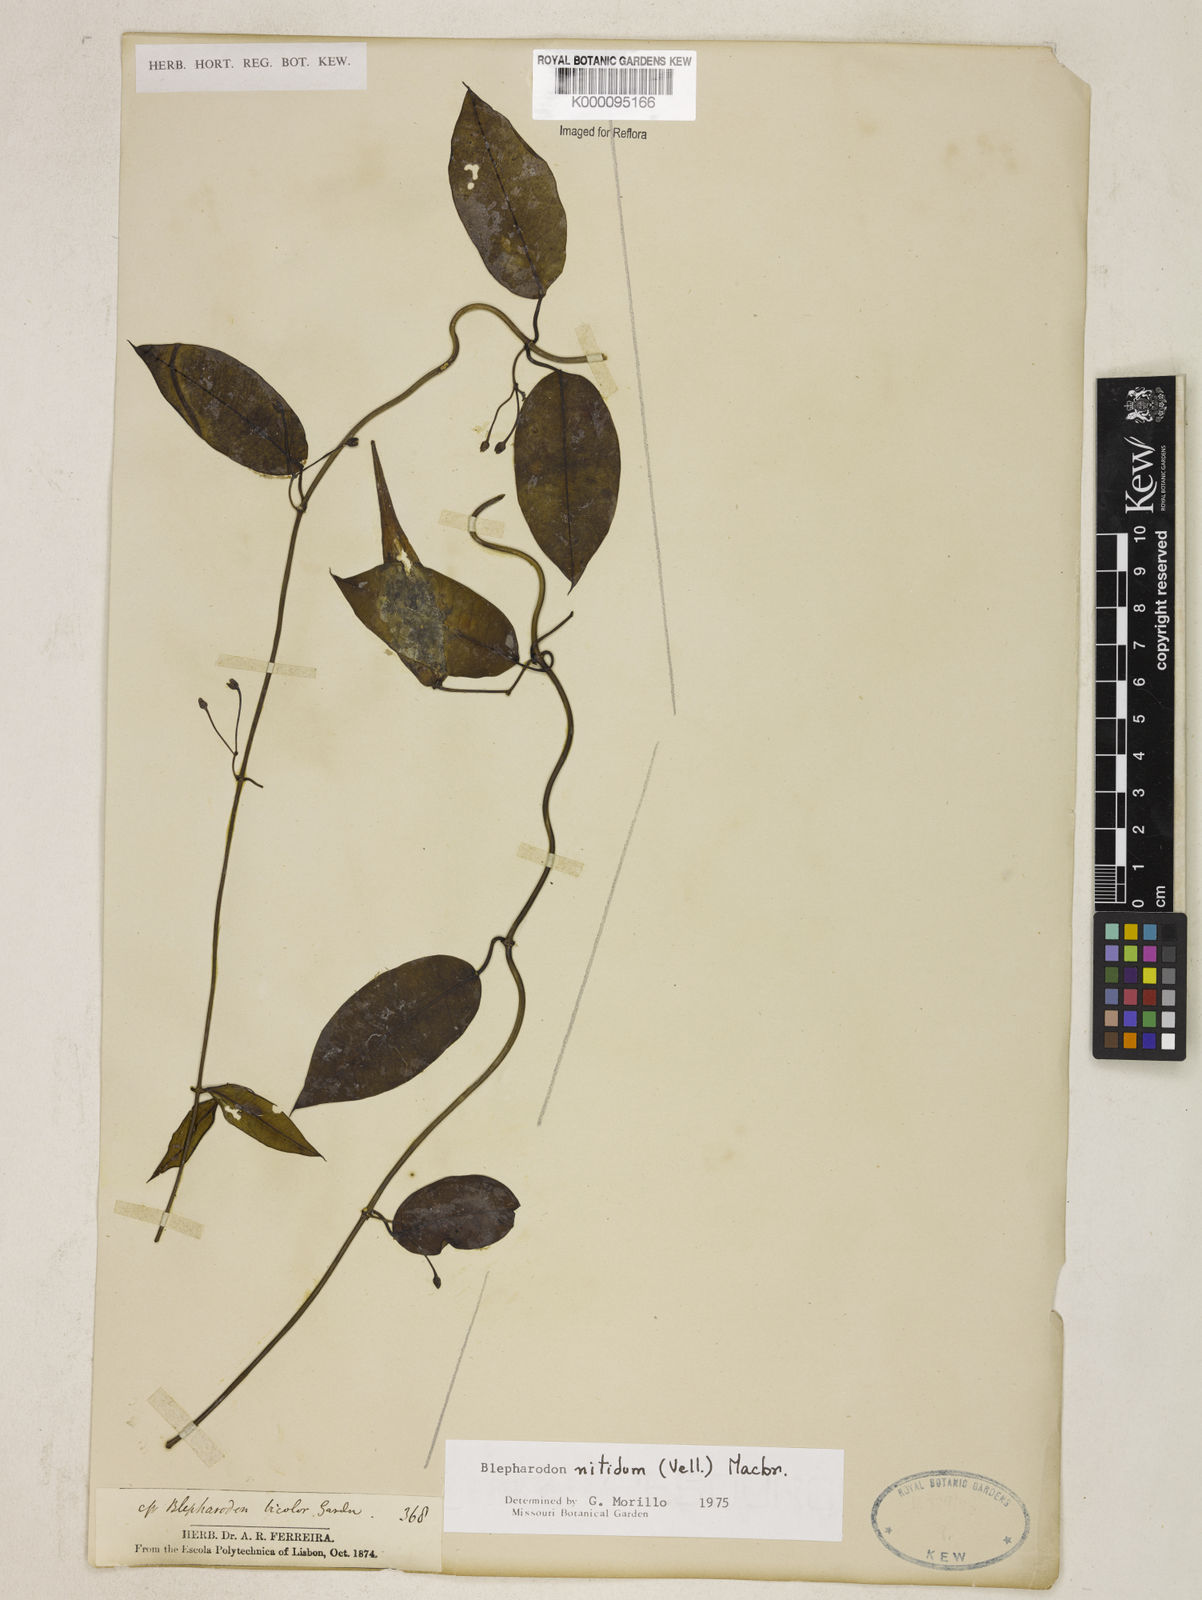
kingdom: Plantae
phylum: Tracheophyta
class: Magnoliopsida
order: Gentianales
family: Apocynaceae
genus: Blepharodon
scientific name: Blepharodon pictum
